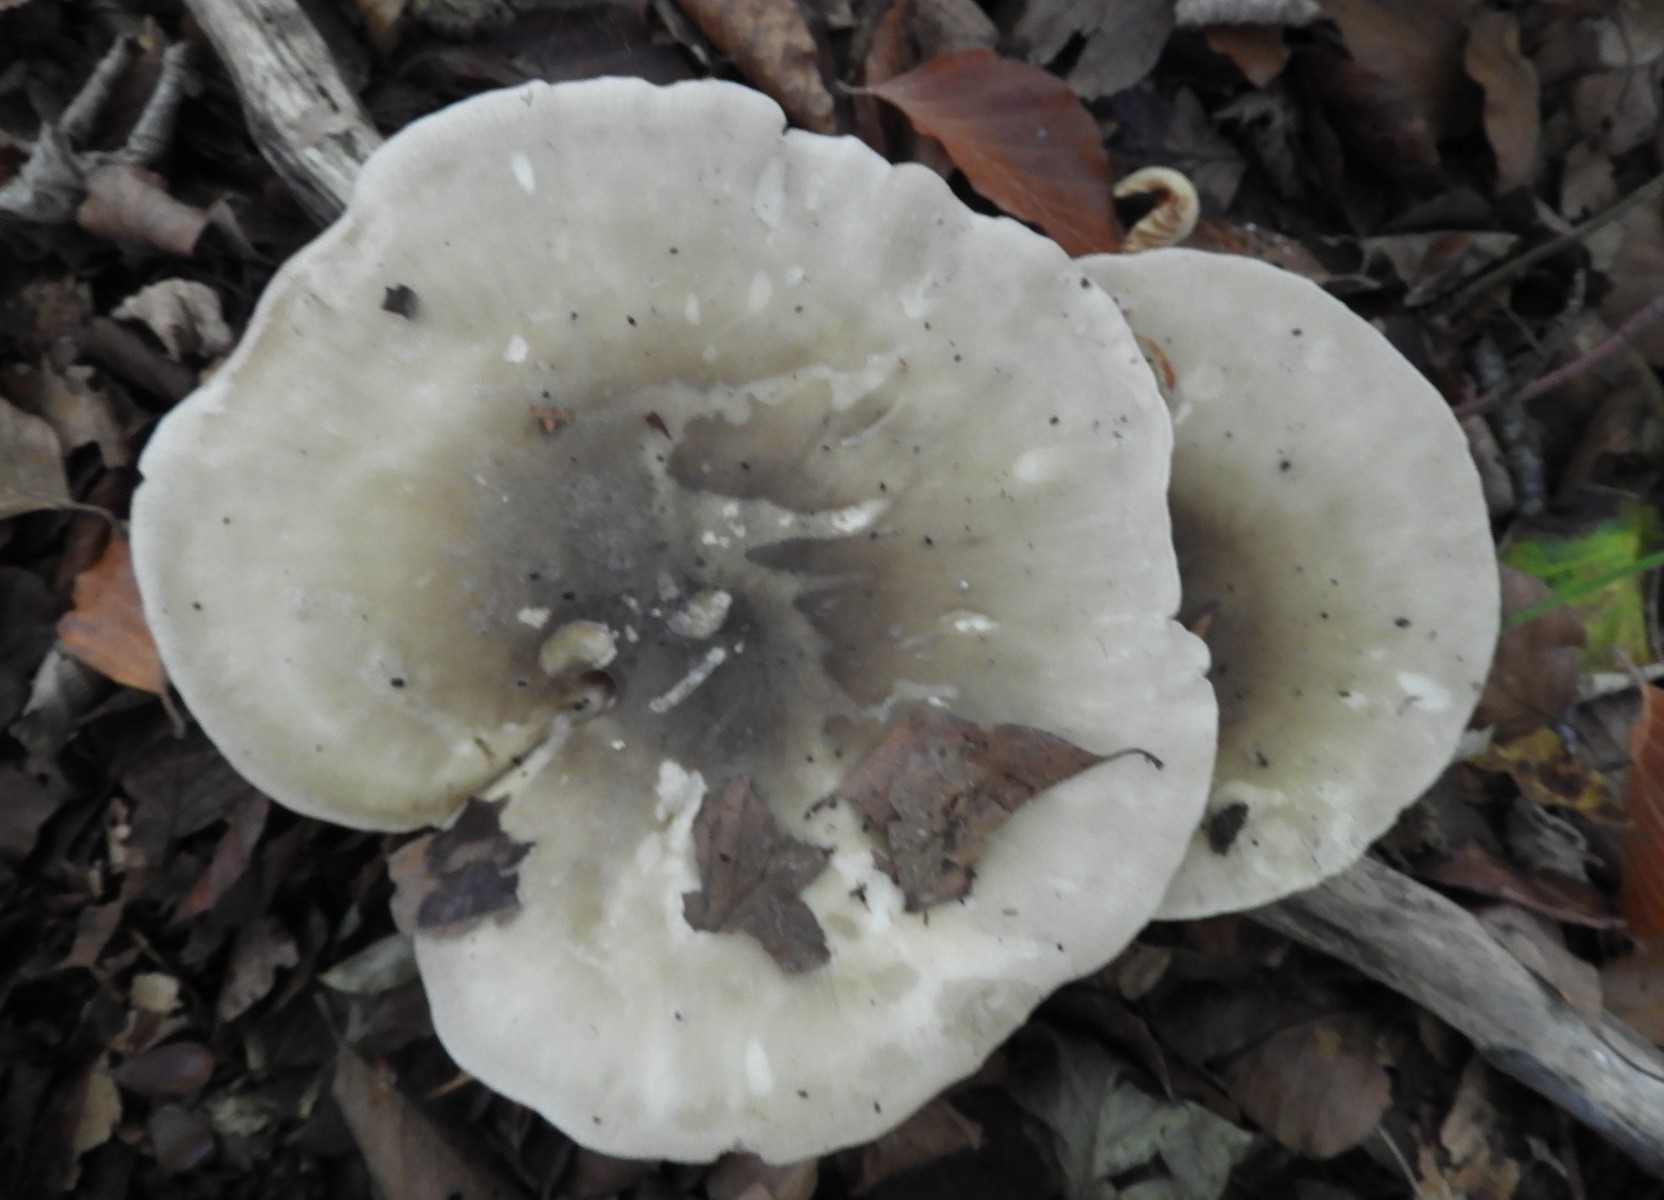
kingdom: Fungi
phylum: Basidiomycota
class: Agaricomycetes
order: Agaricales
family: Tricholomataceae
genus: Clitocybe
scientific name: Clitocybe nebularis
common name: tåge-tragthat
